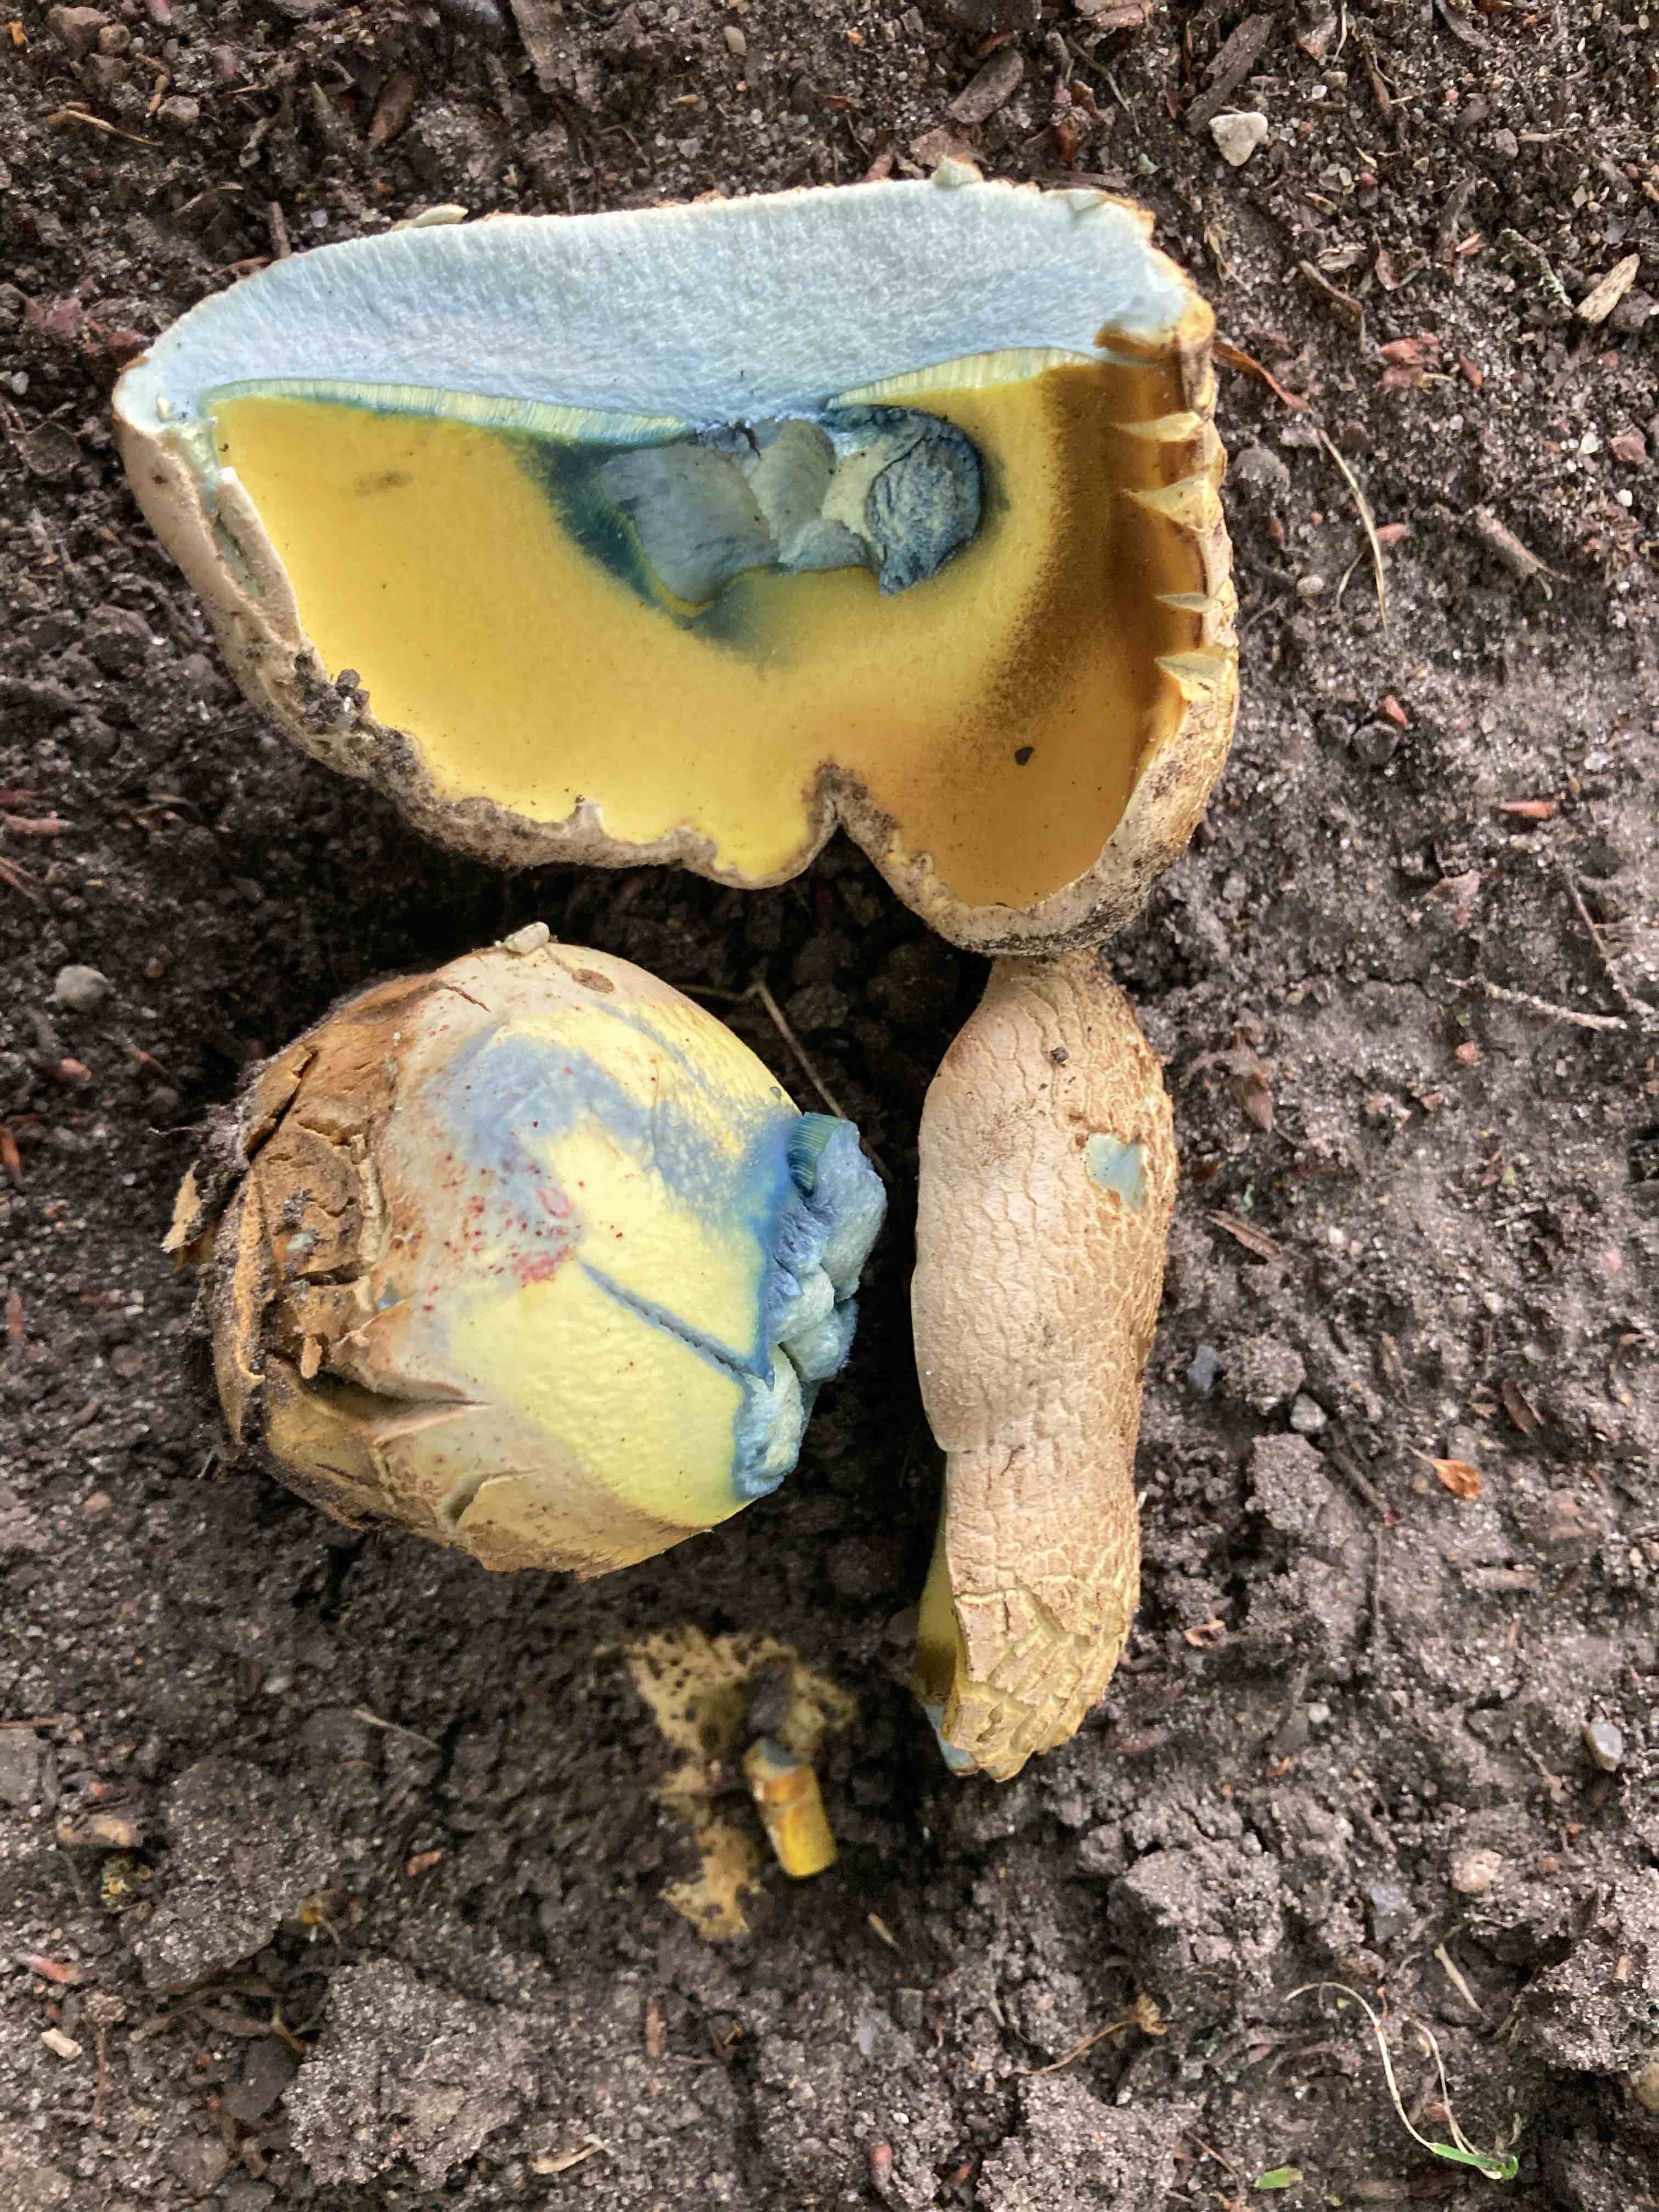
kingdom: Fungi
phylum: Basidiomycota
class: Agaricomycetes
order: Boletales
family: Boletaceae
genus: Caloboletus
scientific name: Caloboletus radicans
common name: rod-rørhat
